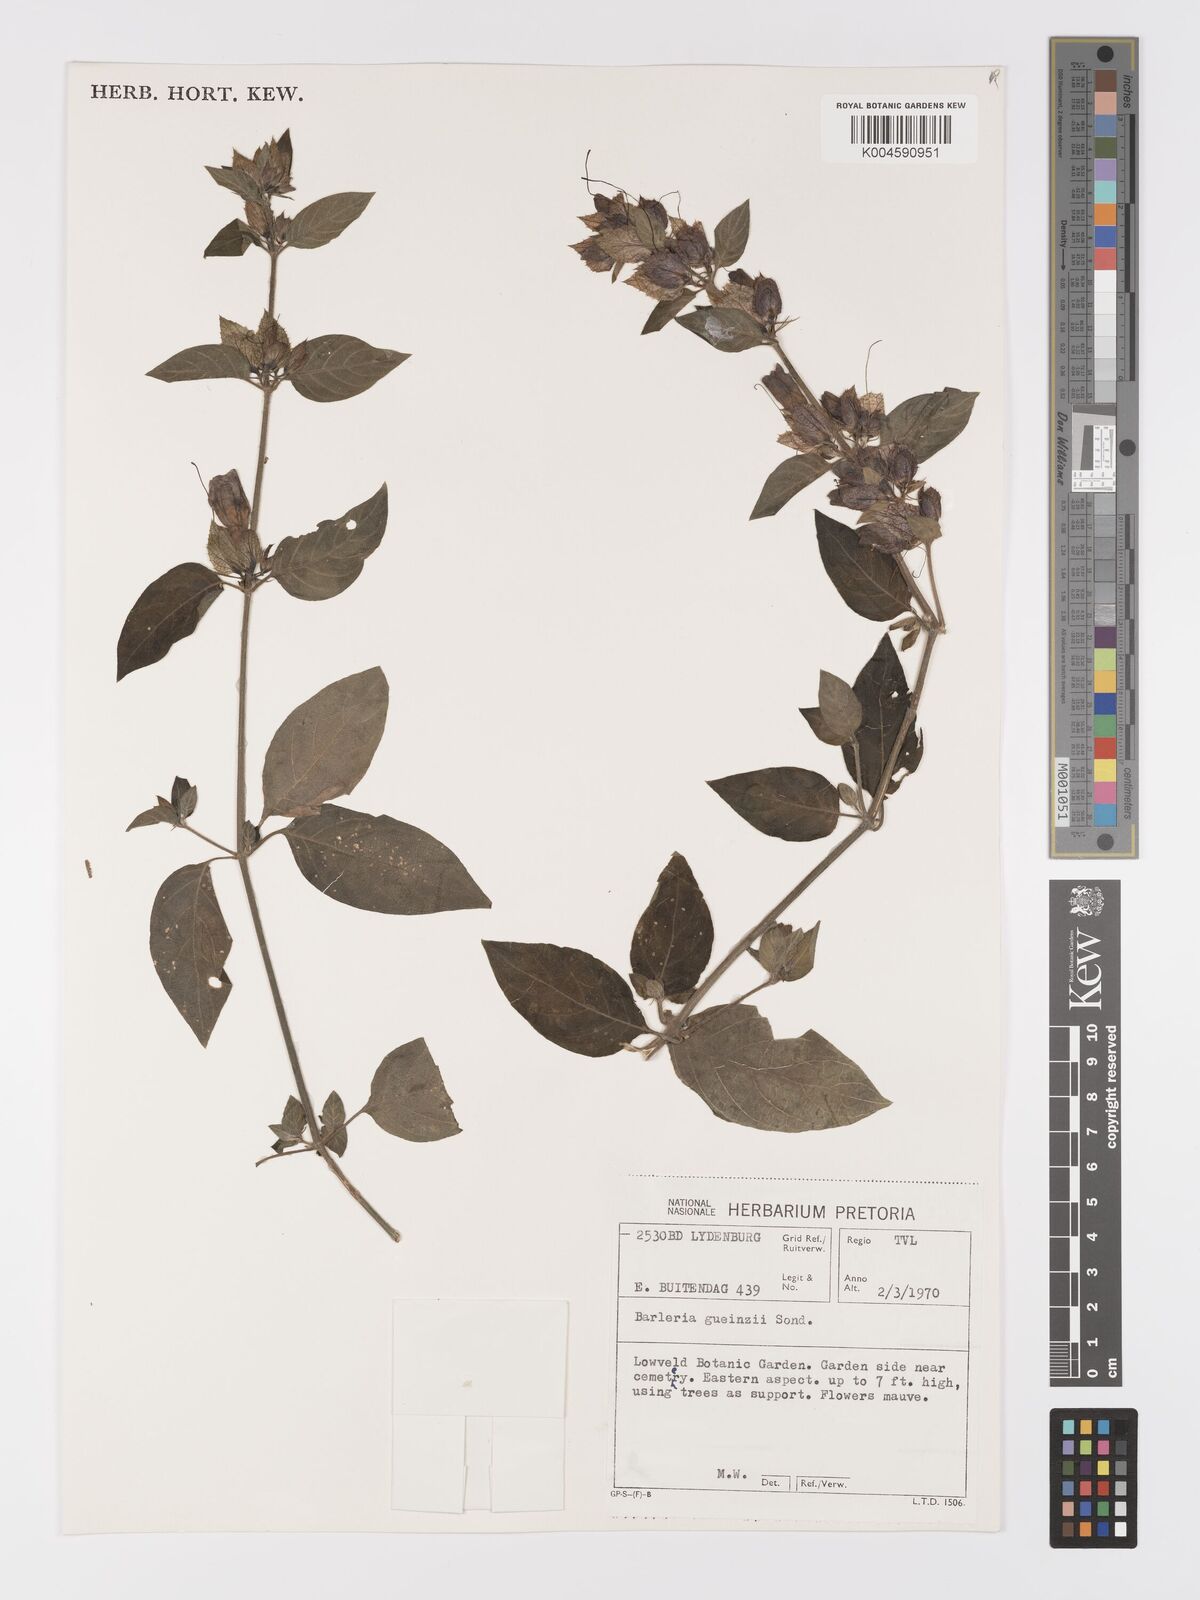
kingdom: Plantae
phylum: Tracheophyta
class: Magnoliopsida
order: Lamiales
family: Acanthaceae
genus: Barleria
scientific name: Barleria gueinzii
